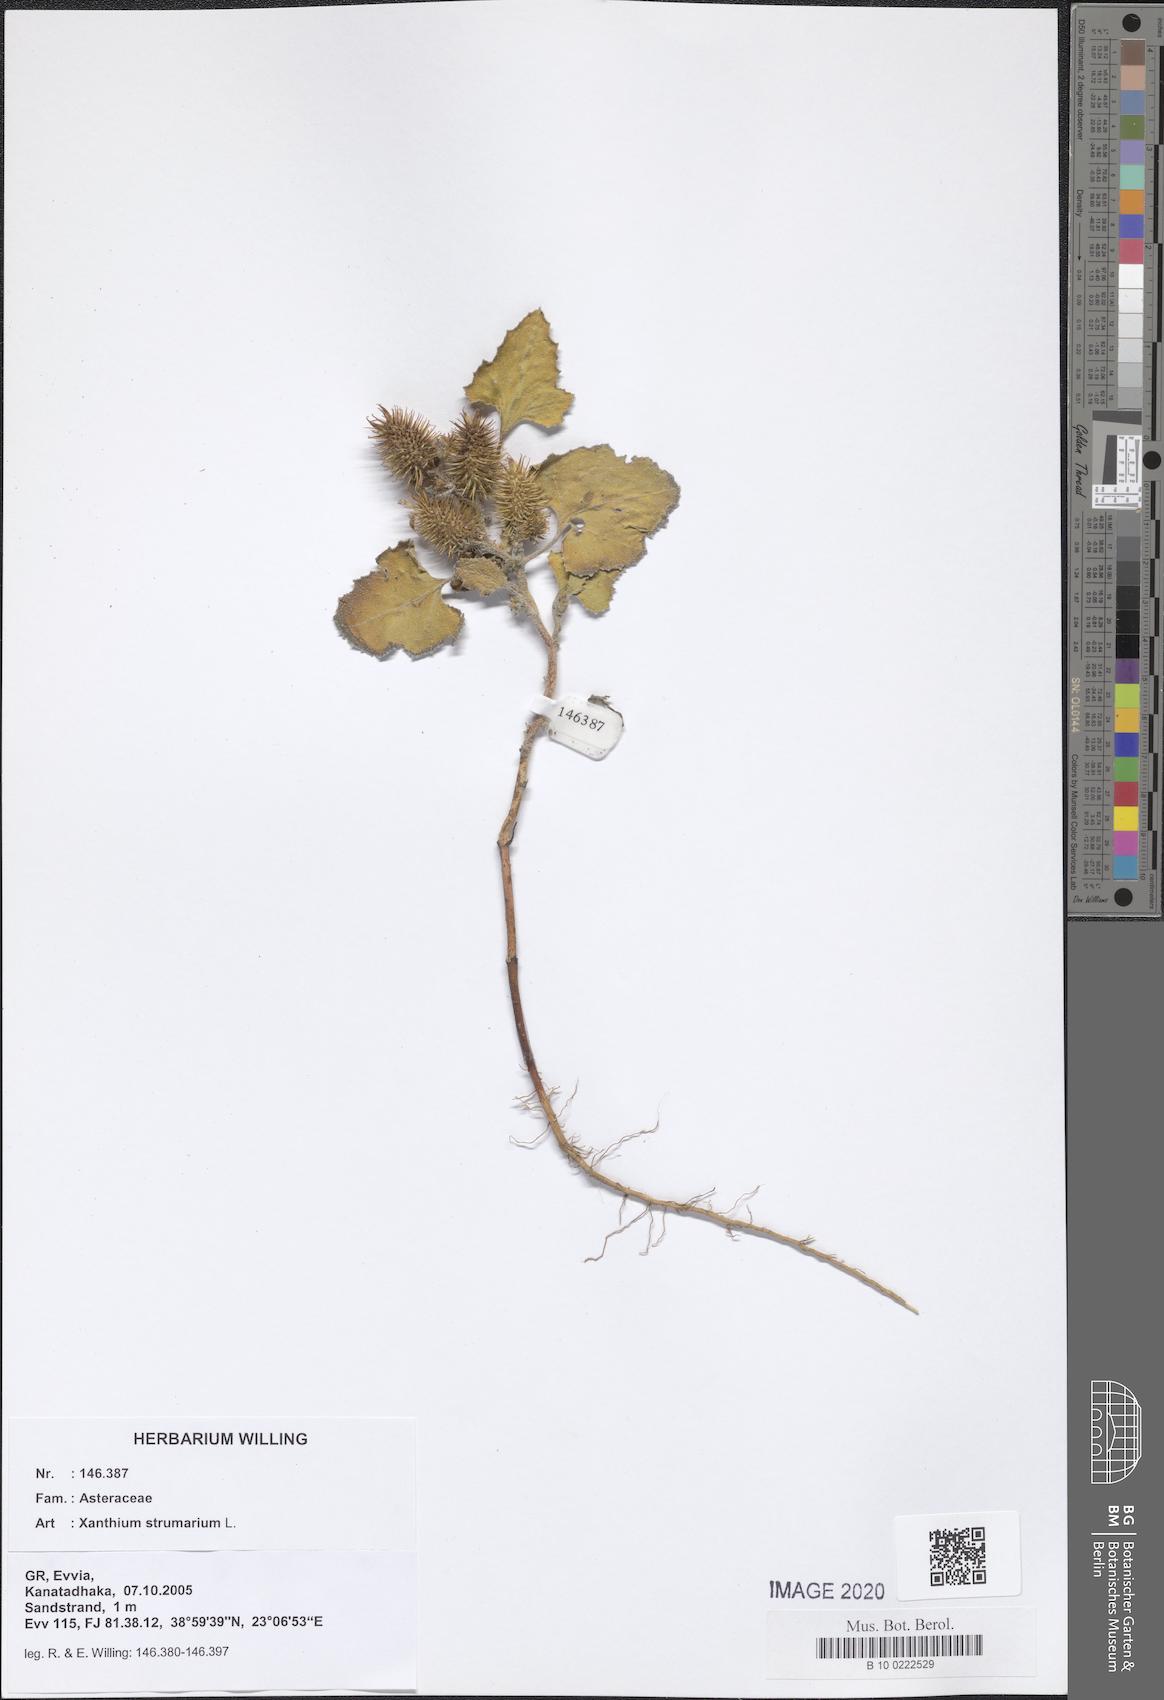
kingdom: Plantae
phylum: Tracheophyta
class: Magnoliopsida
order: Asterales
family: Asteraceae
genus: Xanthium
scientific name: Xanthium strumarium
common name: Rough cocklebur
